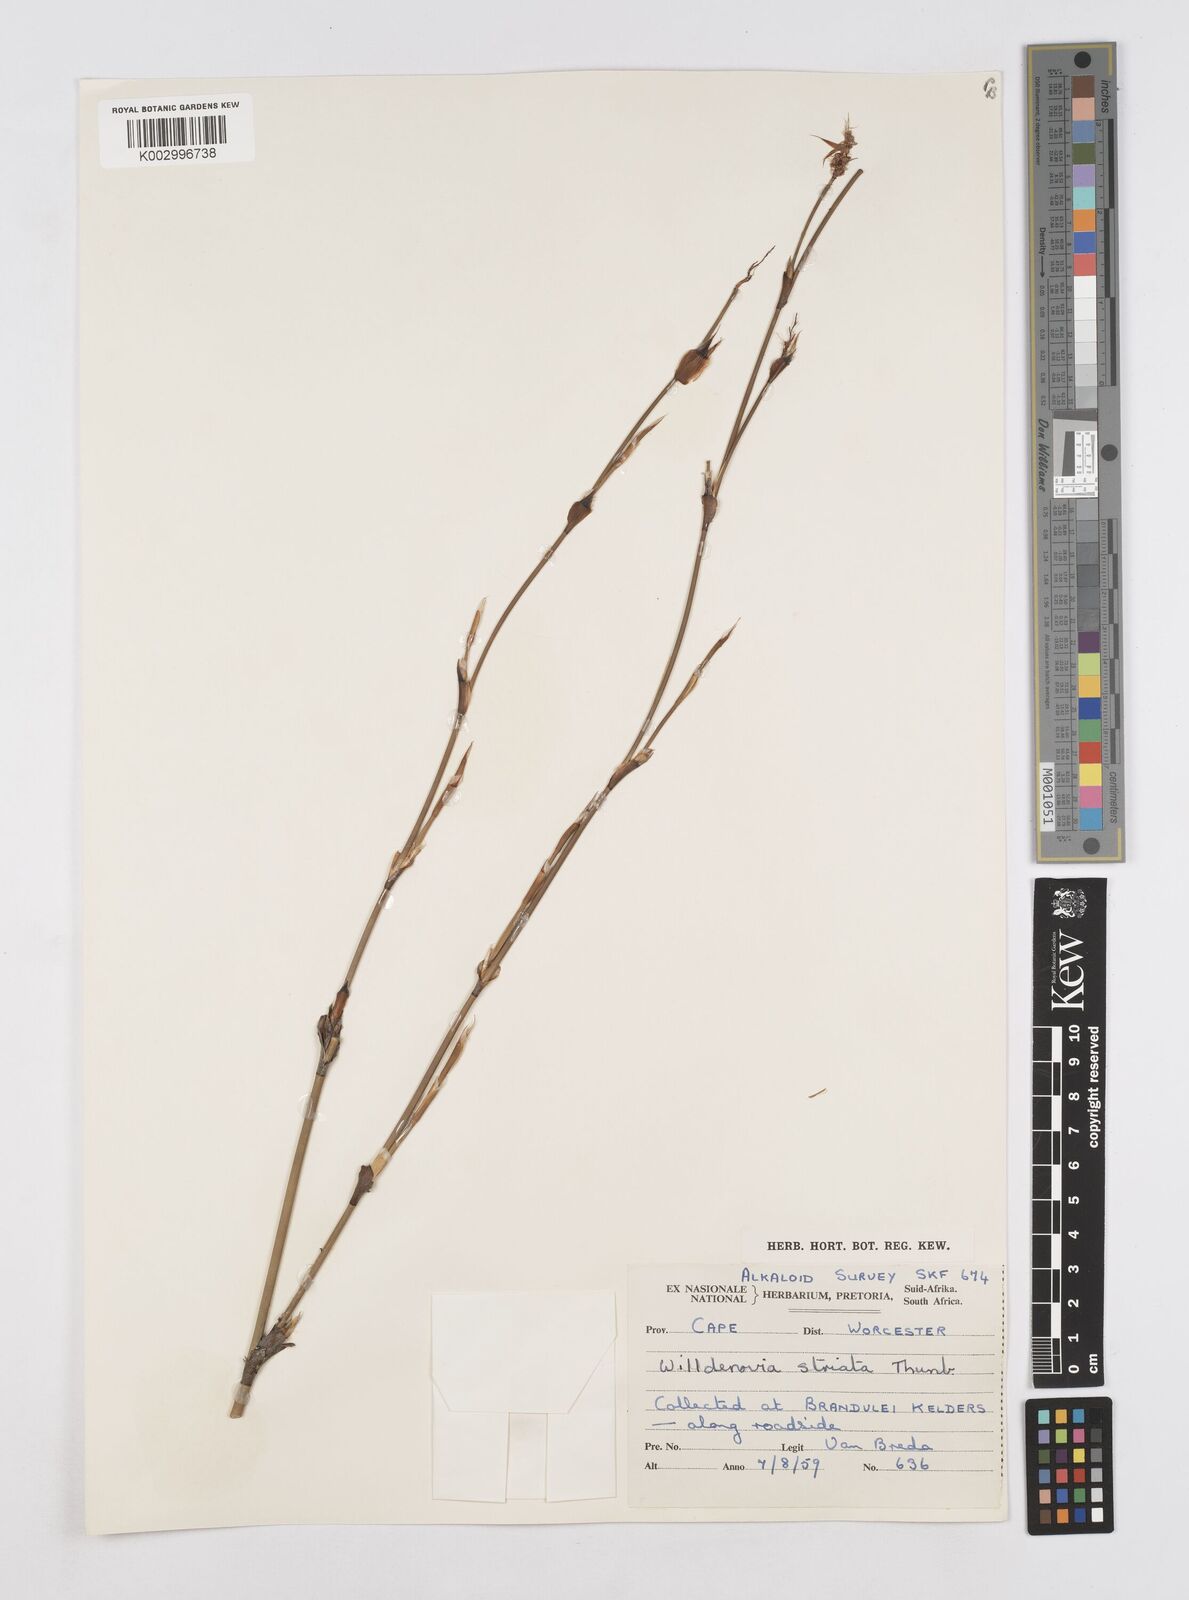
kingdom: Plantae
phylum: Tracheophyta
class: Liliopsida
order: Poales
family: Restionaceae
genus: Willdenowia
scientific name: Willdenowia incurvata
